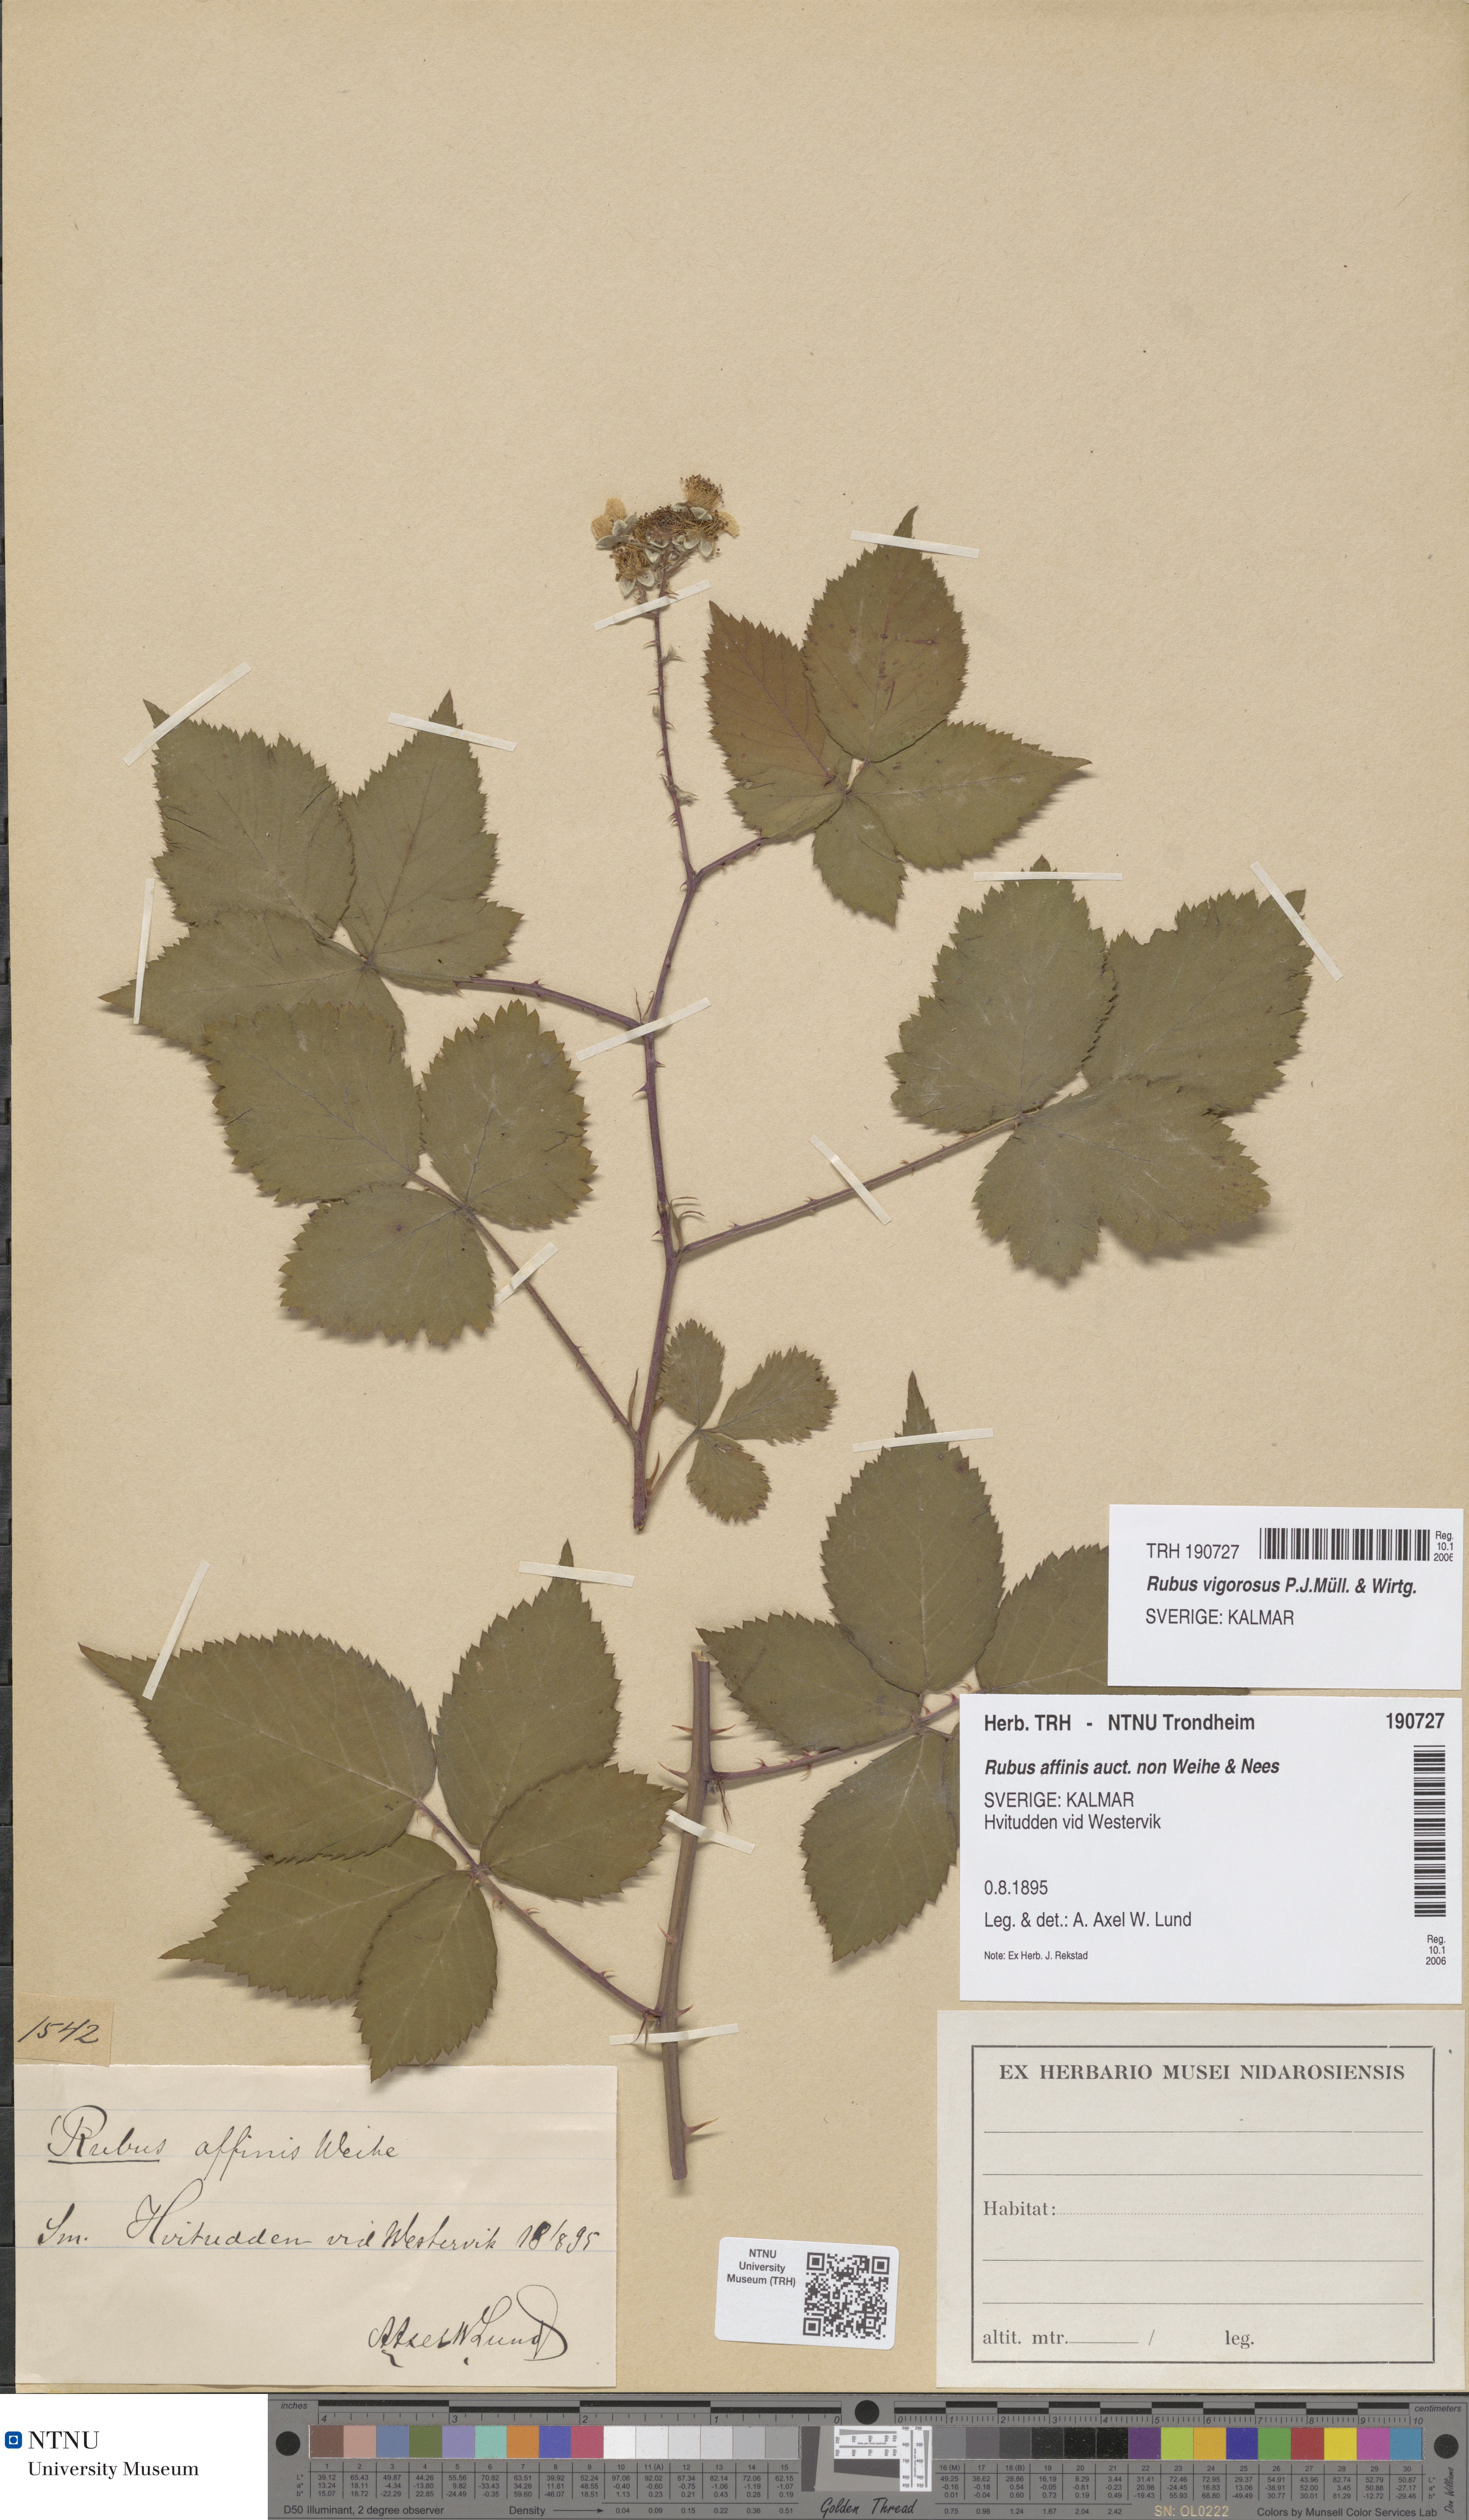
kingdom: Plantae
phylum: Tracheophyta
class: Magnoliopsida
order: Rosales
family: Rosaceae
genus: Rubus
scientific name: Rubus affinis
